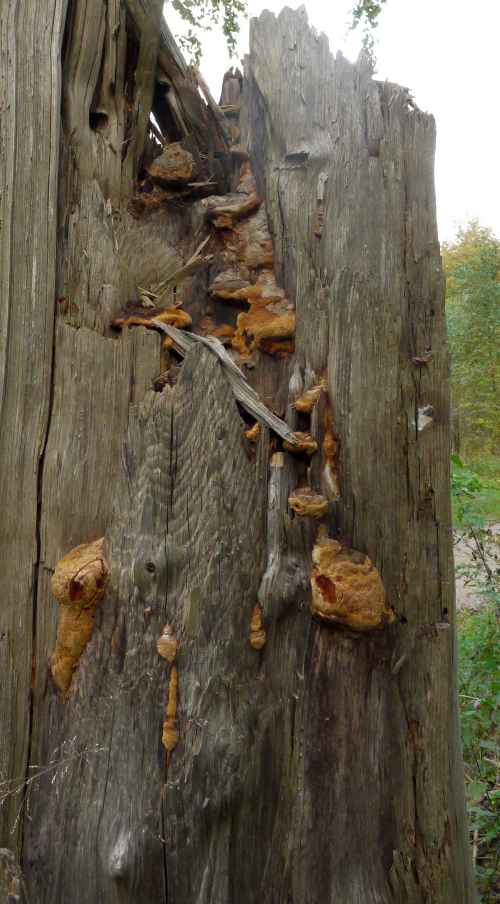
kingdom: Fungi
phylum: Basidiomycota
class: Agaricomycetes
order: Gloeophyllales
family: Gloeophyllaceae
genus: Gloeophyllum
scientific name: Gloeophyllum odoratum
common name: duftende korkhat
